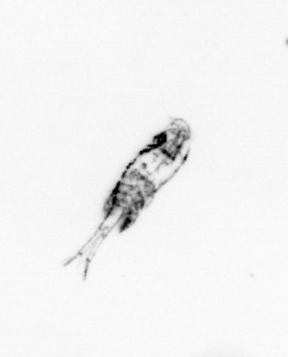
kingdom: Animalia
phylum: Arthropoda
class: Copepoda
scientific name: Copepoda
